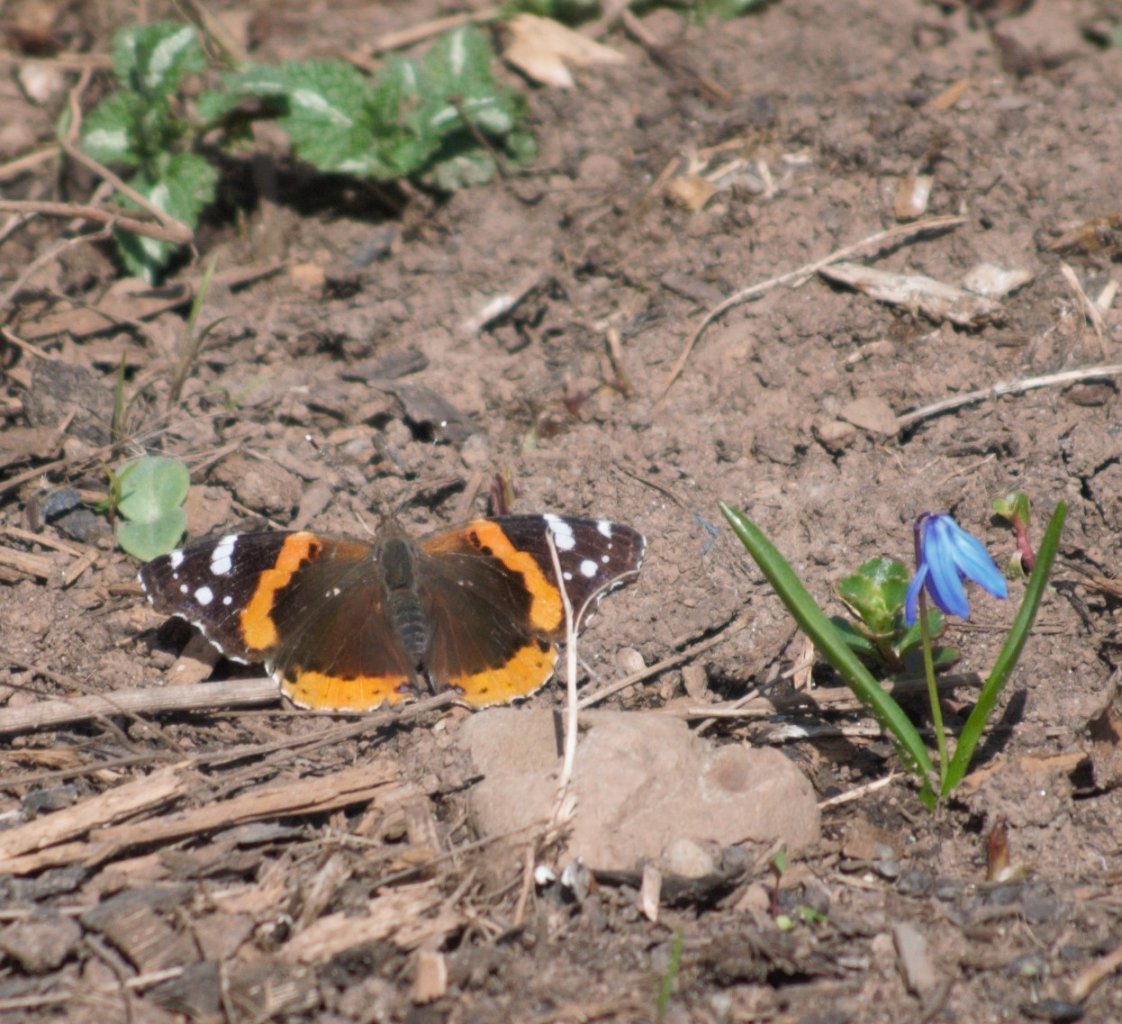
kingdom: Animalia
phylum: Arthropoda
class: Insecta
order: Lepidoptera
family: Nymphalidae
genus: Vanessa
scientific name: Vanessa atalanta
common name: Red Admiral
